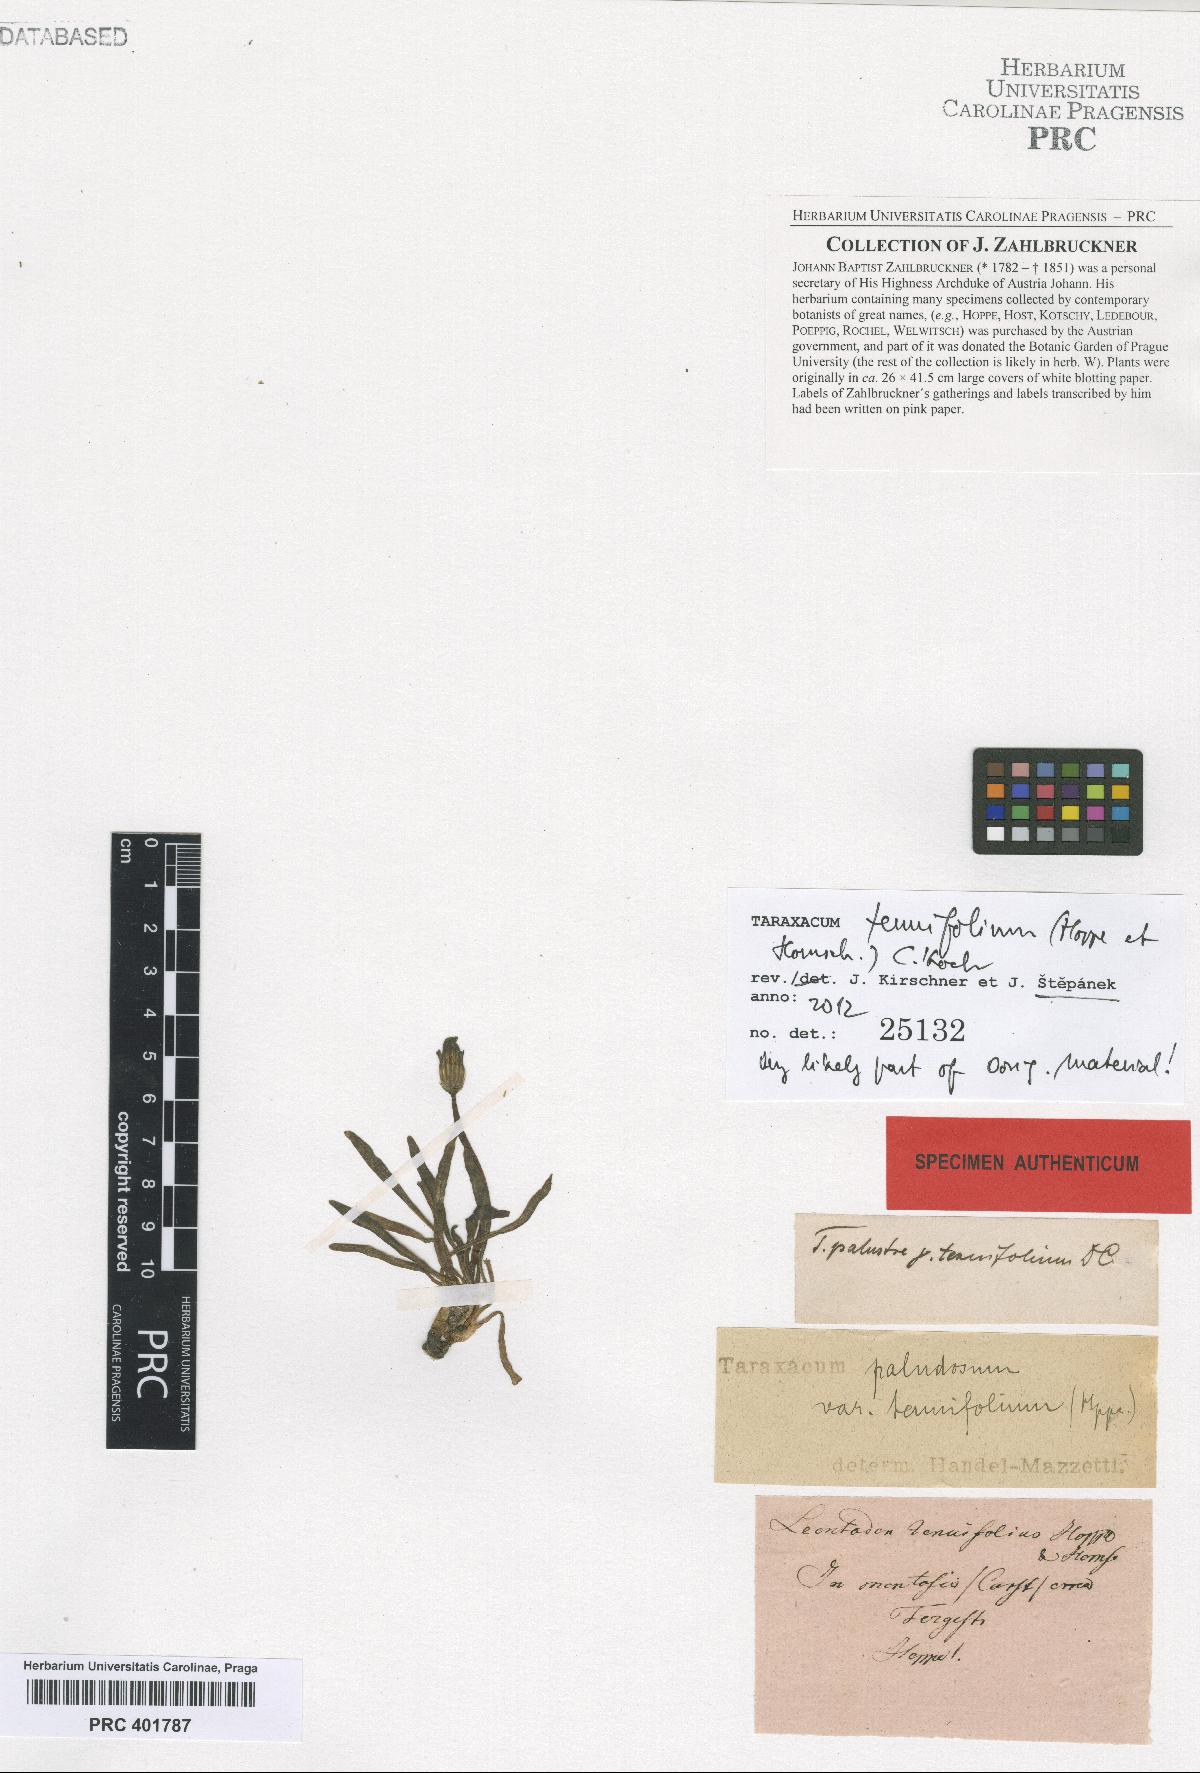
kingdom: Plantae
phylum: Tracheophyta
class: Magnoliopsida
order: Asterales
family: Asteraceae
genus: Taraxacum
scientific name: Taraxacum tenuifolium
